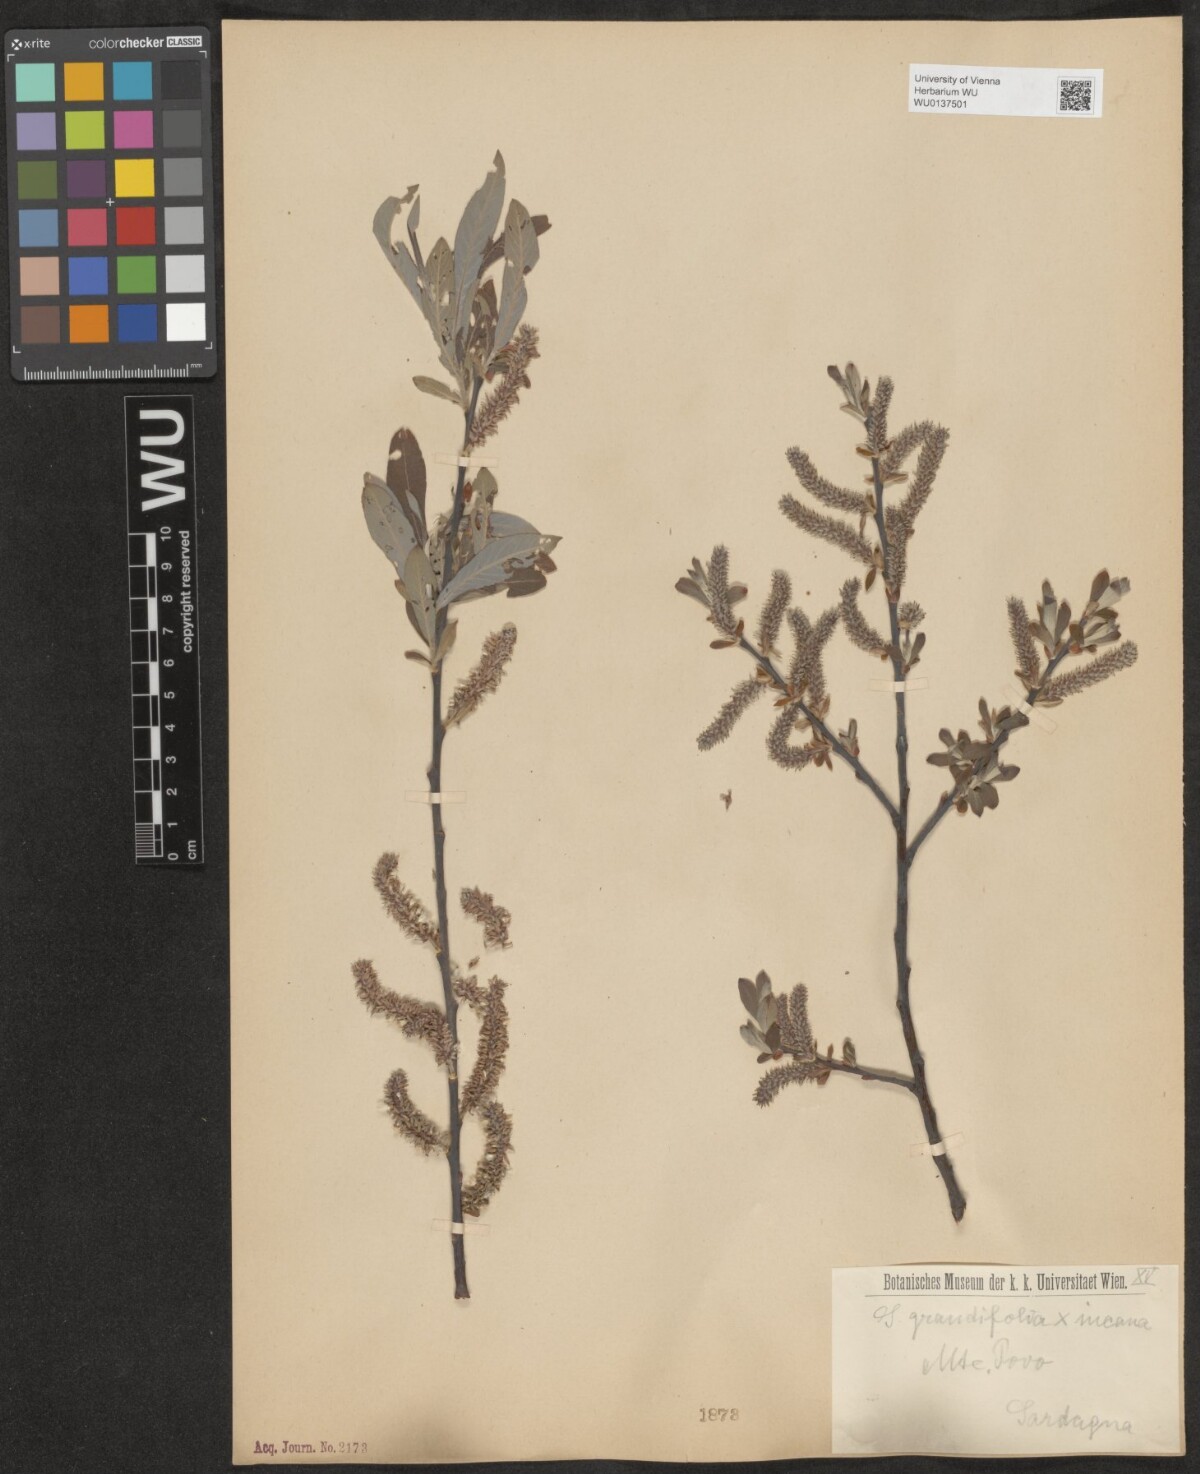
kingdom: Plantae
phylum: Tracheophyta
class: Magnoliopsida
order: Malpighiales
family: Salicaceae
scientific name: Salicaceae
